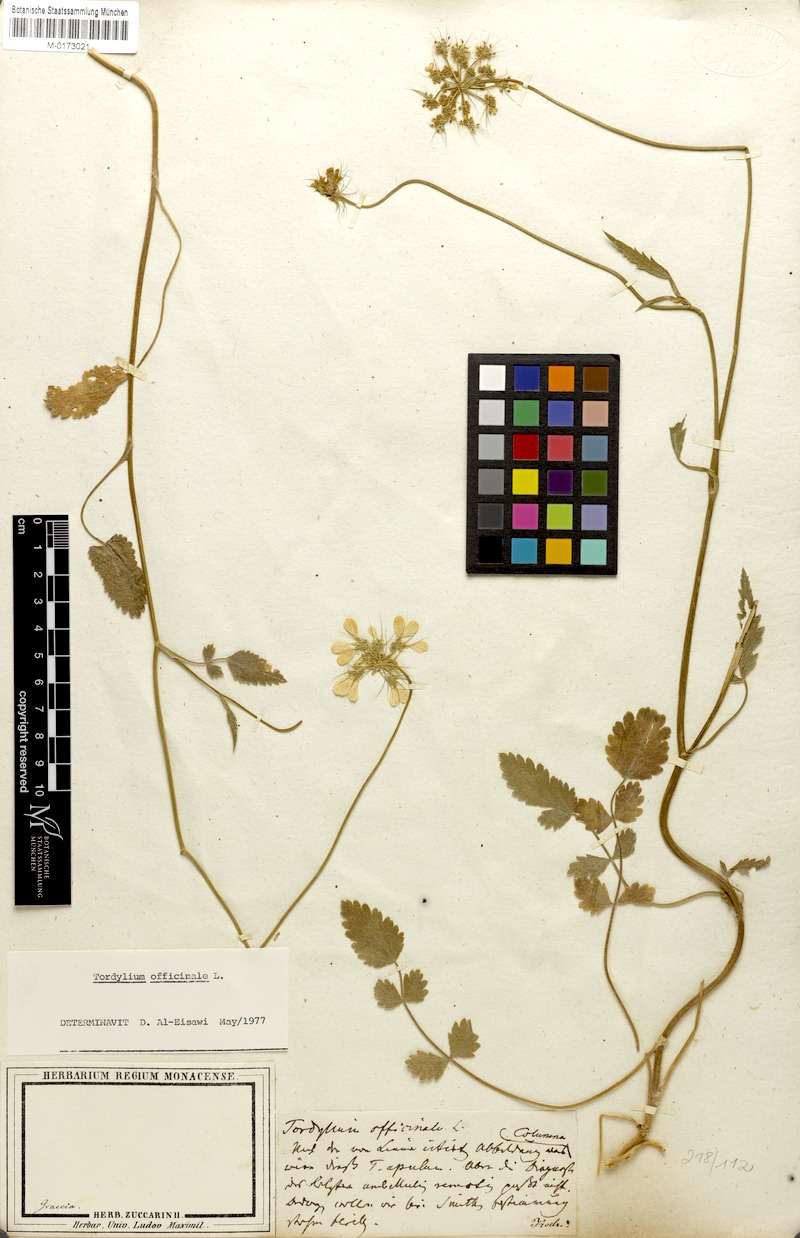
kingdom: Plantae
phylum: Tracheophyta
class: Magnoliopsida
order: Apiales
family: Apiaceae
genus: Tordylium
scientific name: Tordylium officinale
